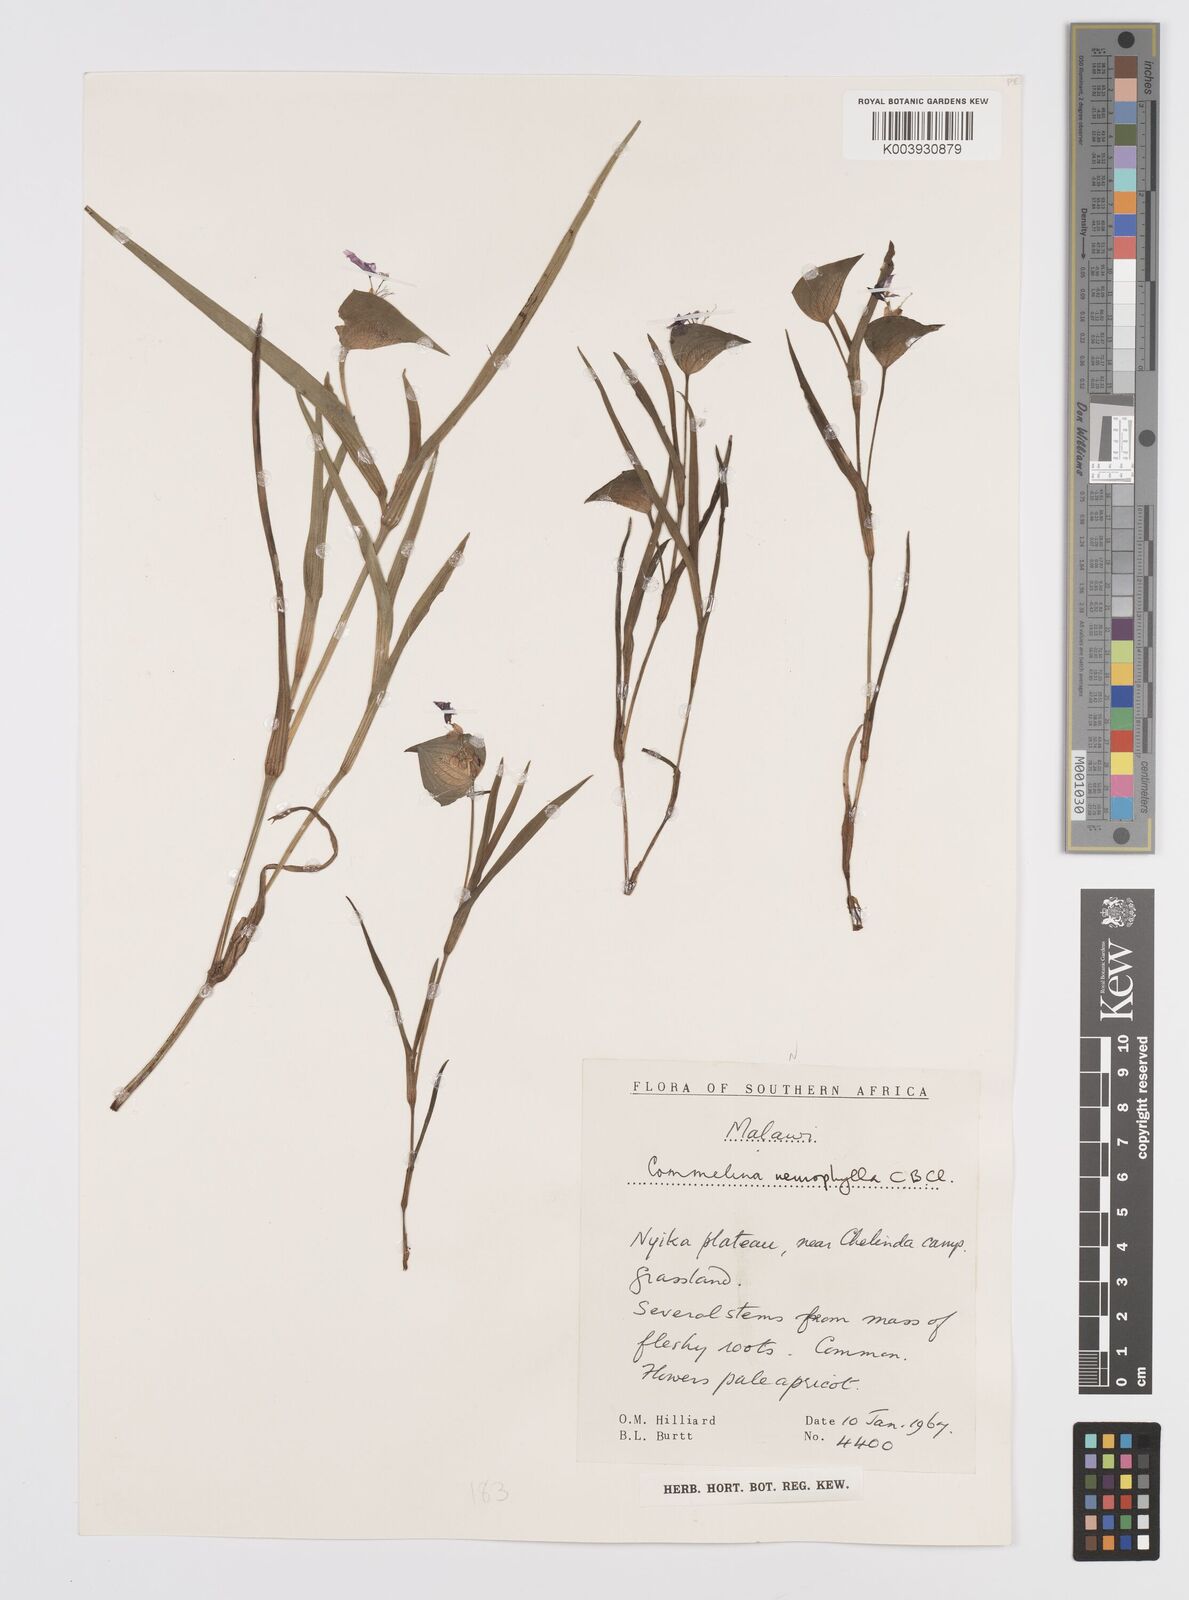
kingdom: Plantae
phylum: Tracheophyta
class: Liliopsida
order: Commelinales
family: Commelinaceae
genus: Commelina
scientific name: Commelina neurophylla
